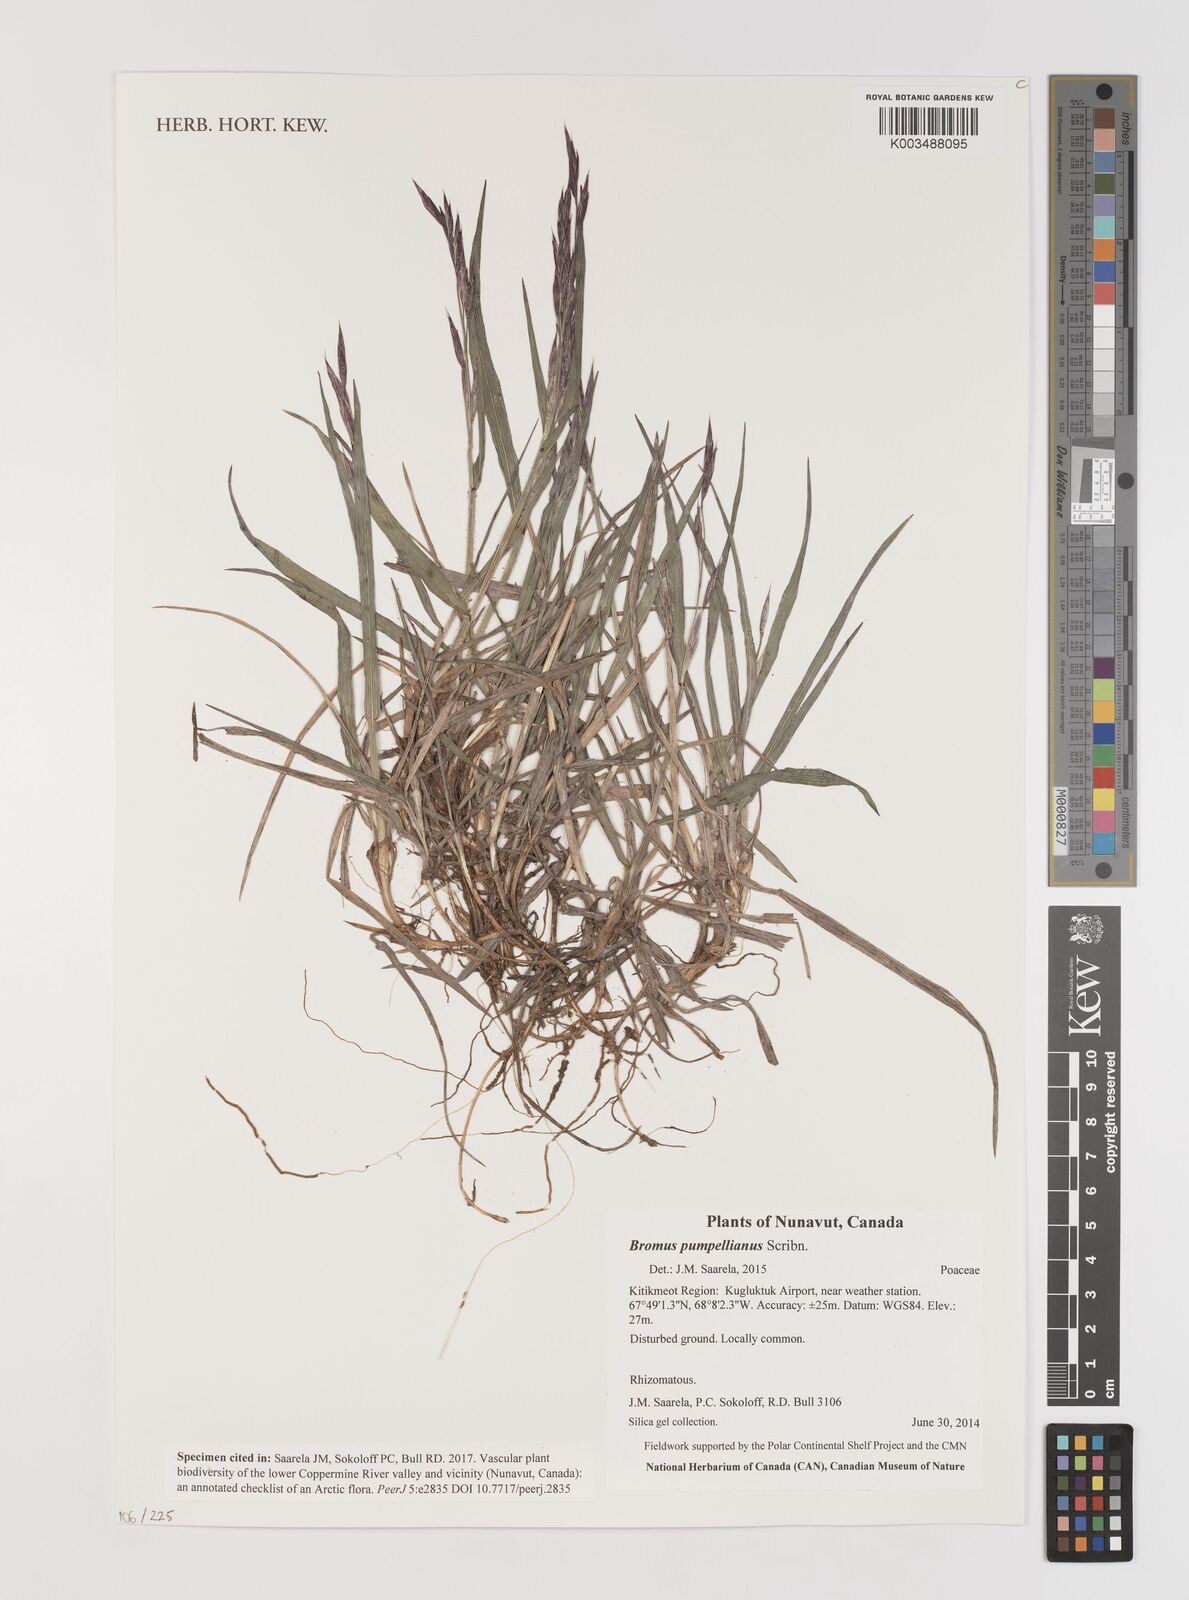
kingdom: Plantae
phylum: Tracheophyta
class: Liliopsida
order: Poales
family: Poaceae
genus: Bromus
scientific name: Bromus pumpellianus
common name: Pumpelly's brome
